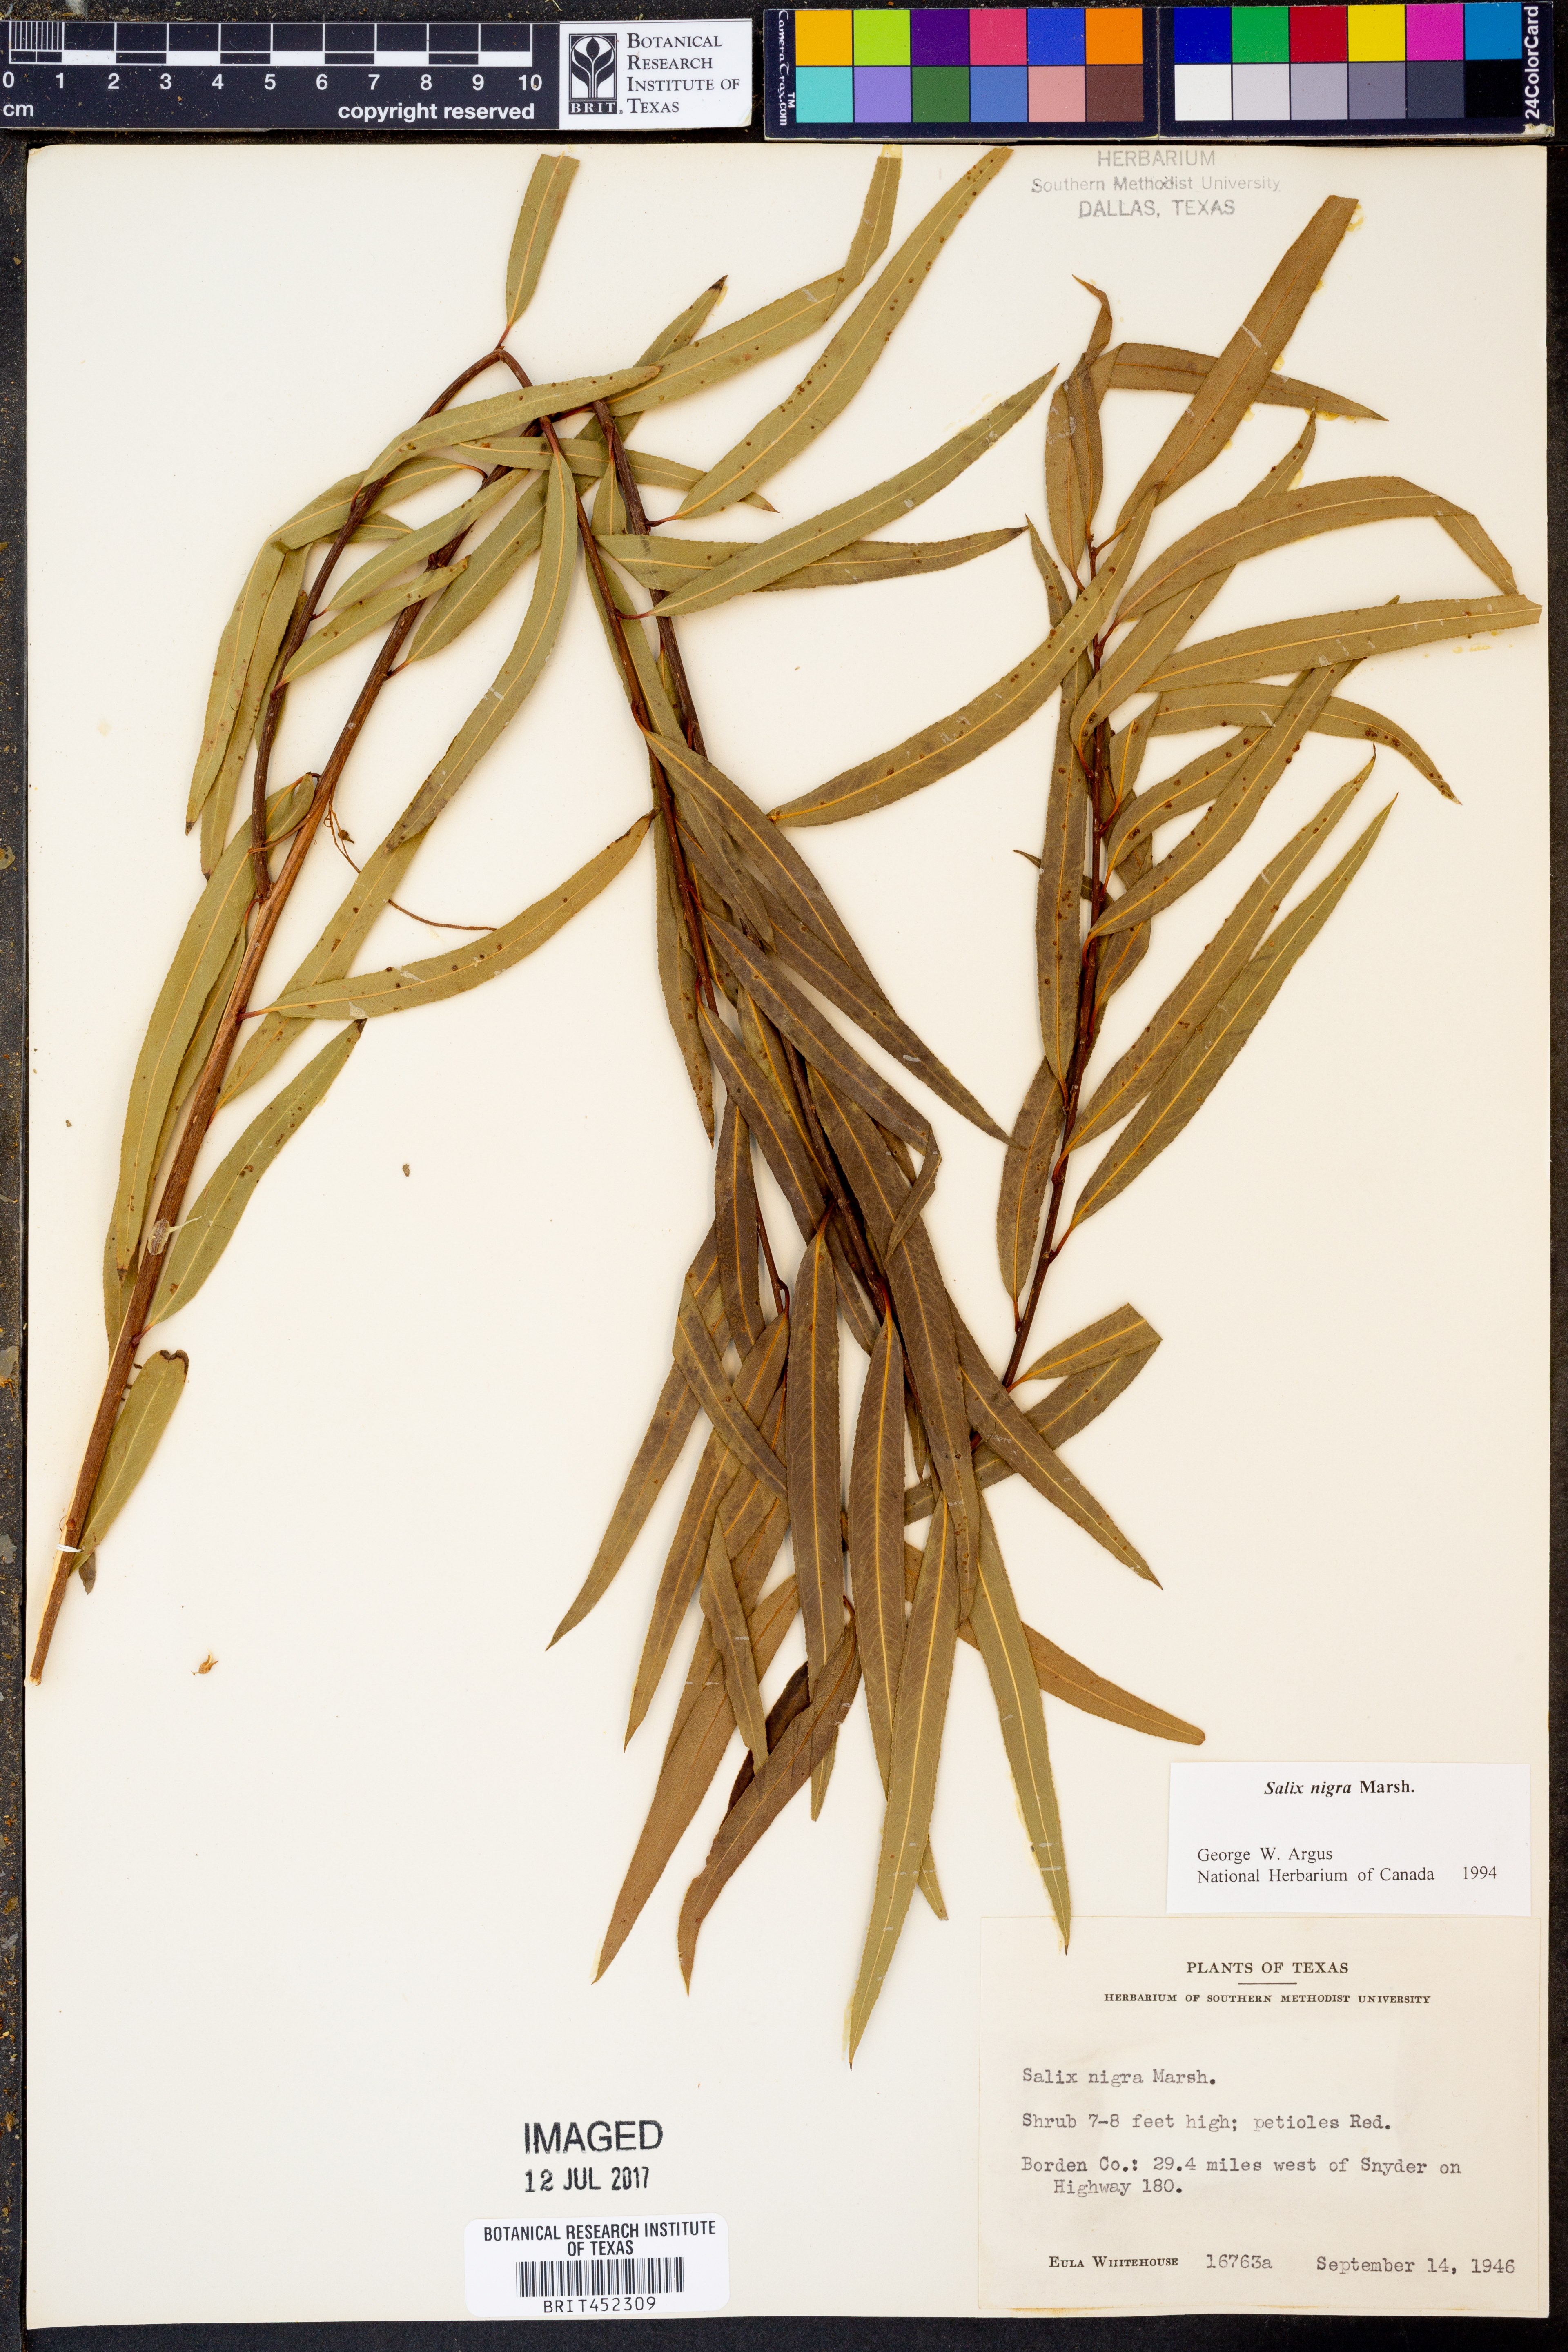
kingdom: Plantae
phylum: Tracheophyta
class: Magnoliopsida
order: Malpighiales
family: Salicaceae
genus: Salix
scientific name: Salix nigra
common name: Black willow
